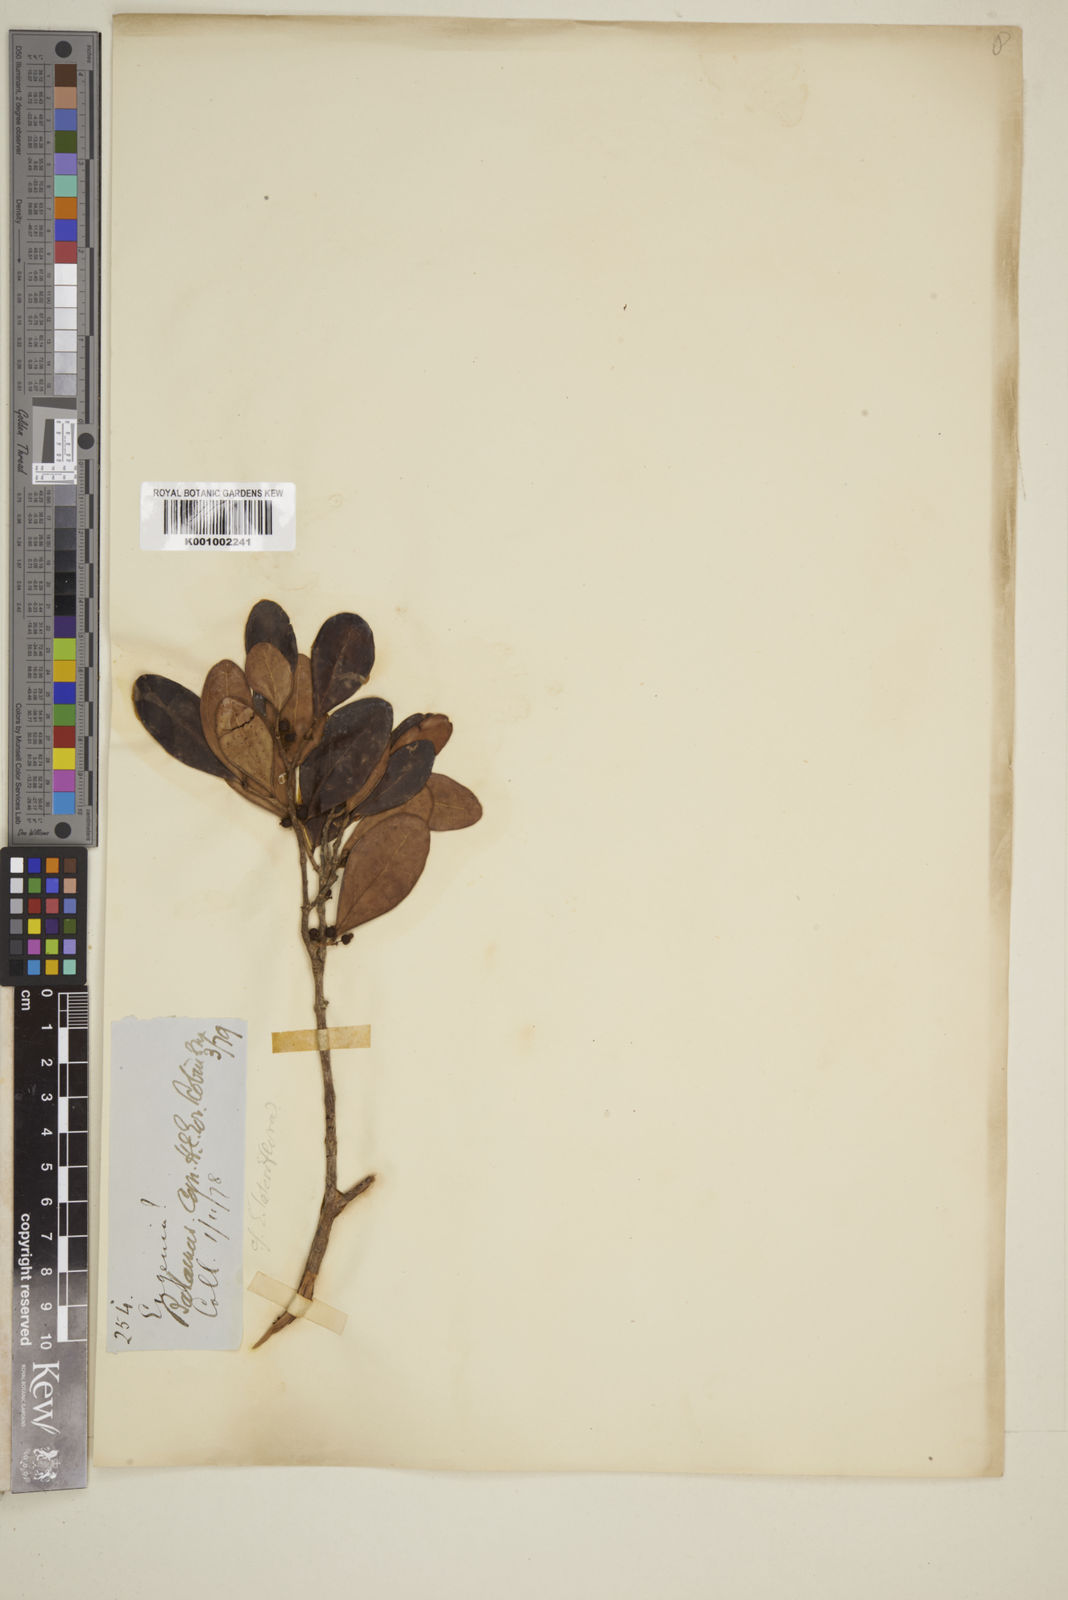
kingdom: Plantae
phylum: Tracheophyta
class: Magnoliopsida
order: Myrtales
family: Myrtaceae
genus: Eugenia
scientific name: Eugenia sessiliflora
